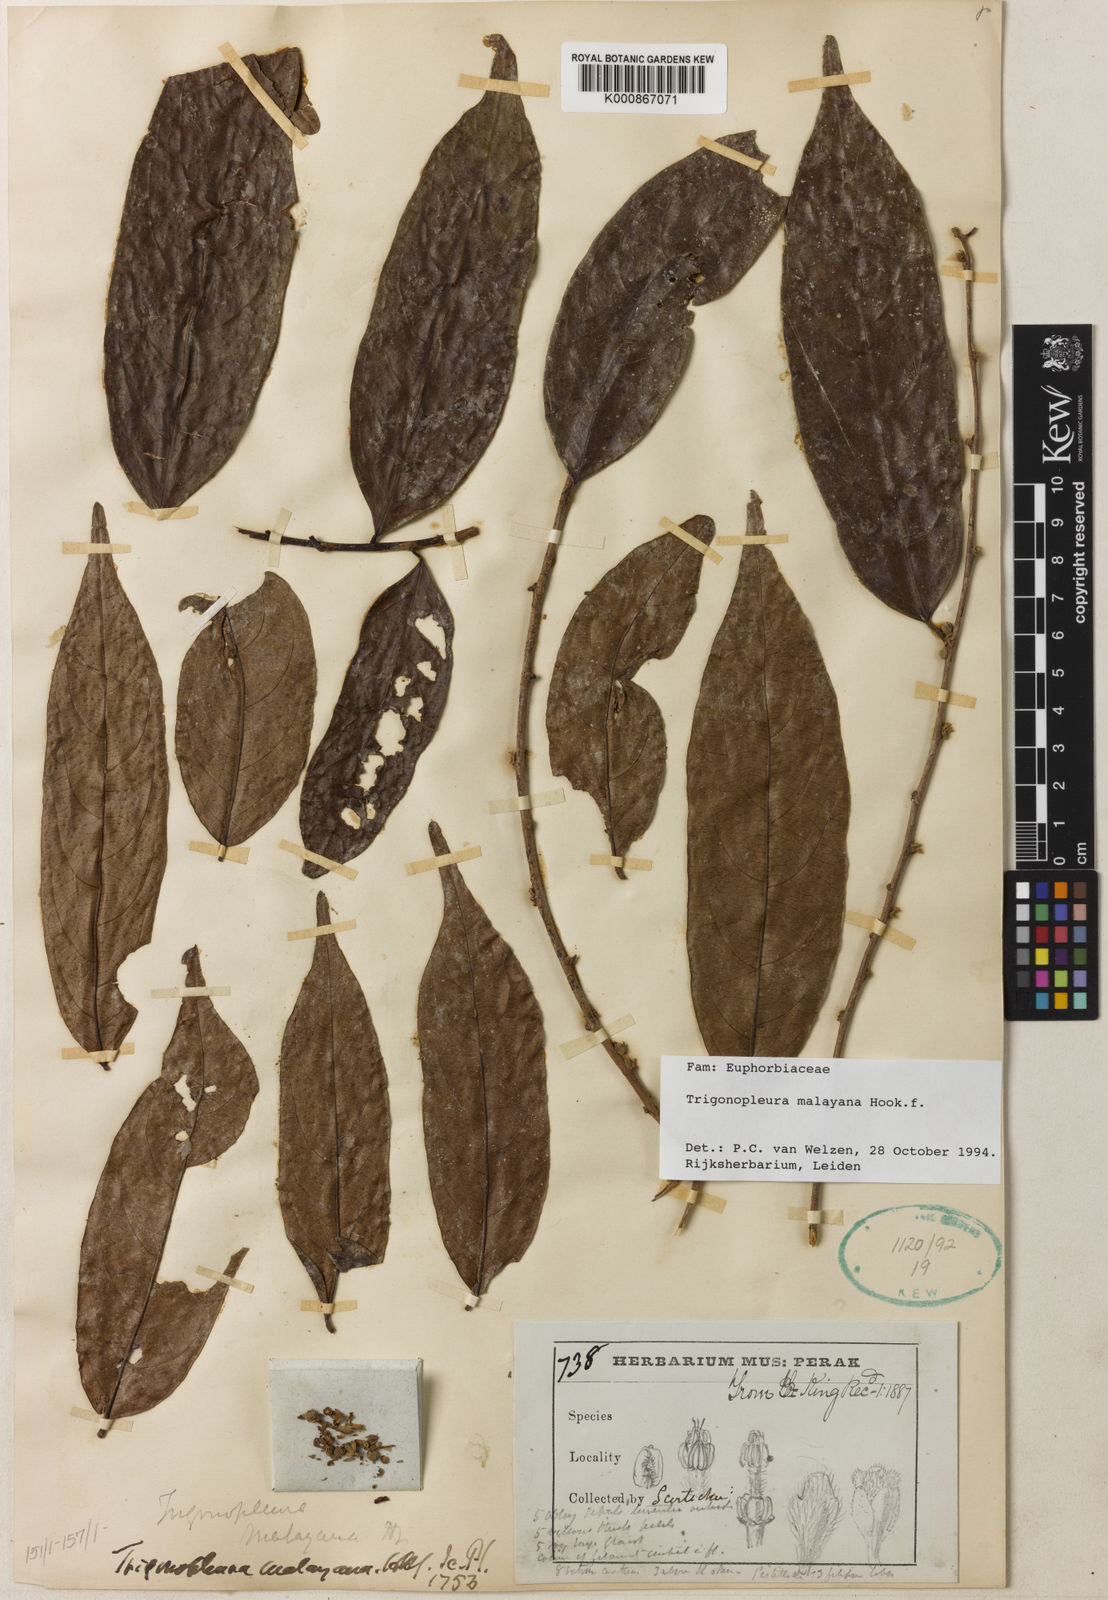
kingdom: Plantae
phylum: Tracheophyta
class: Magnoliopsida
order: Malpighiales
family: Peraceae
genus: Trigonopleura
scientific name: Trigonopleura malayana
